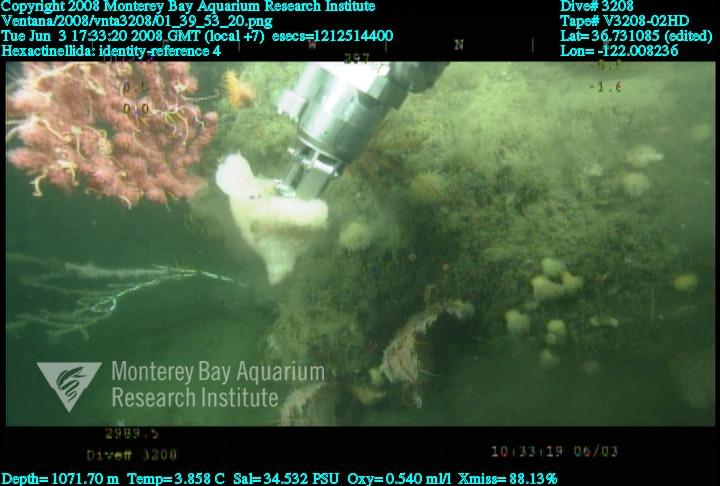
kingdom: Animalia
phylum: Porifera
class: Hexactinellida
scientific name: Hexactinellida
